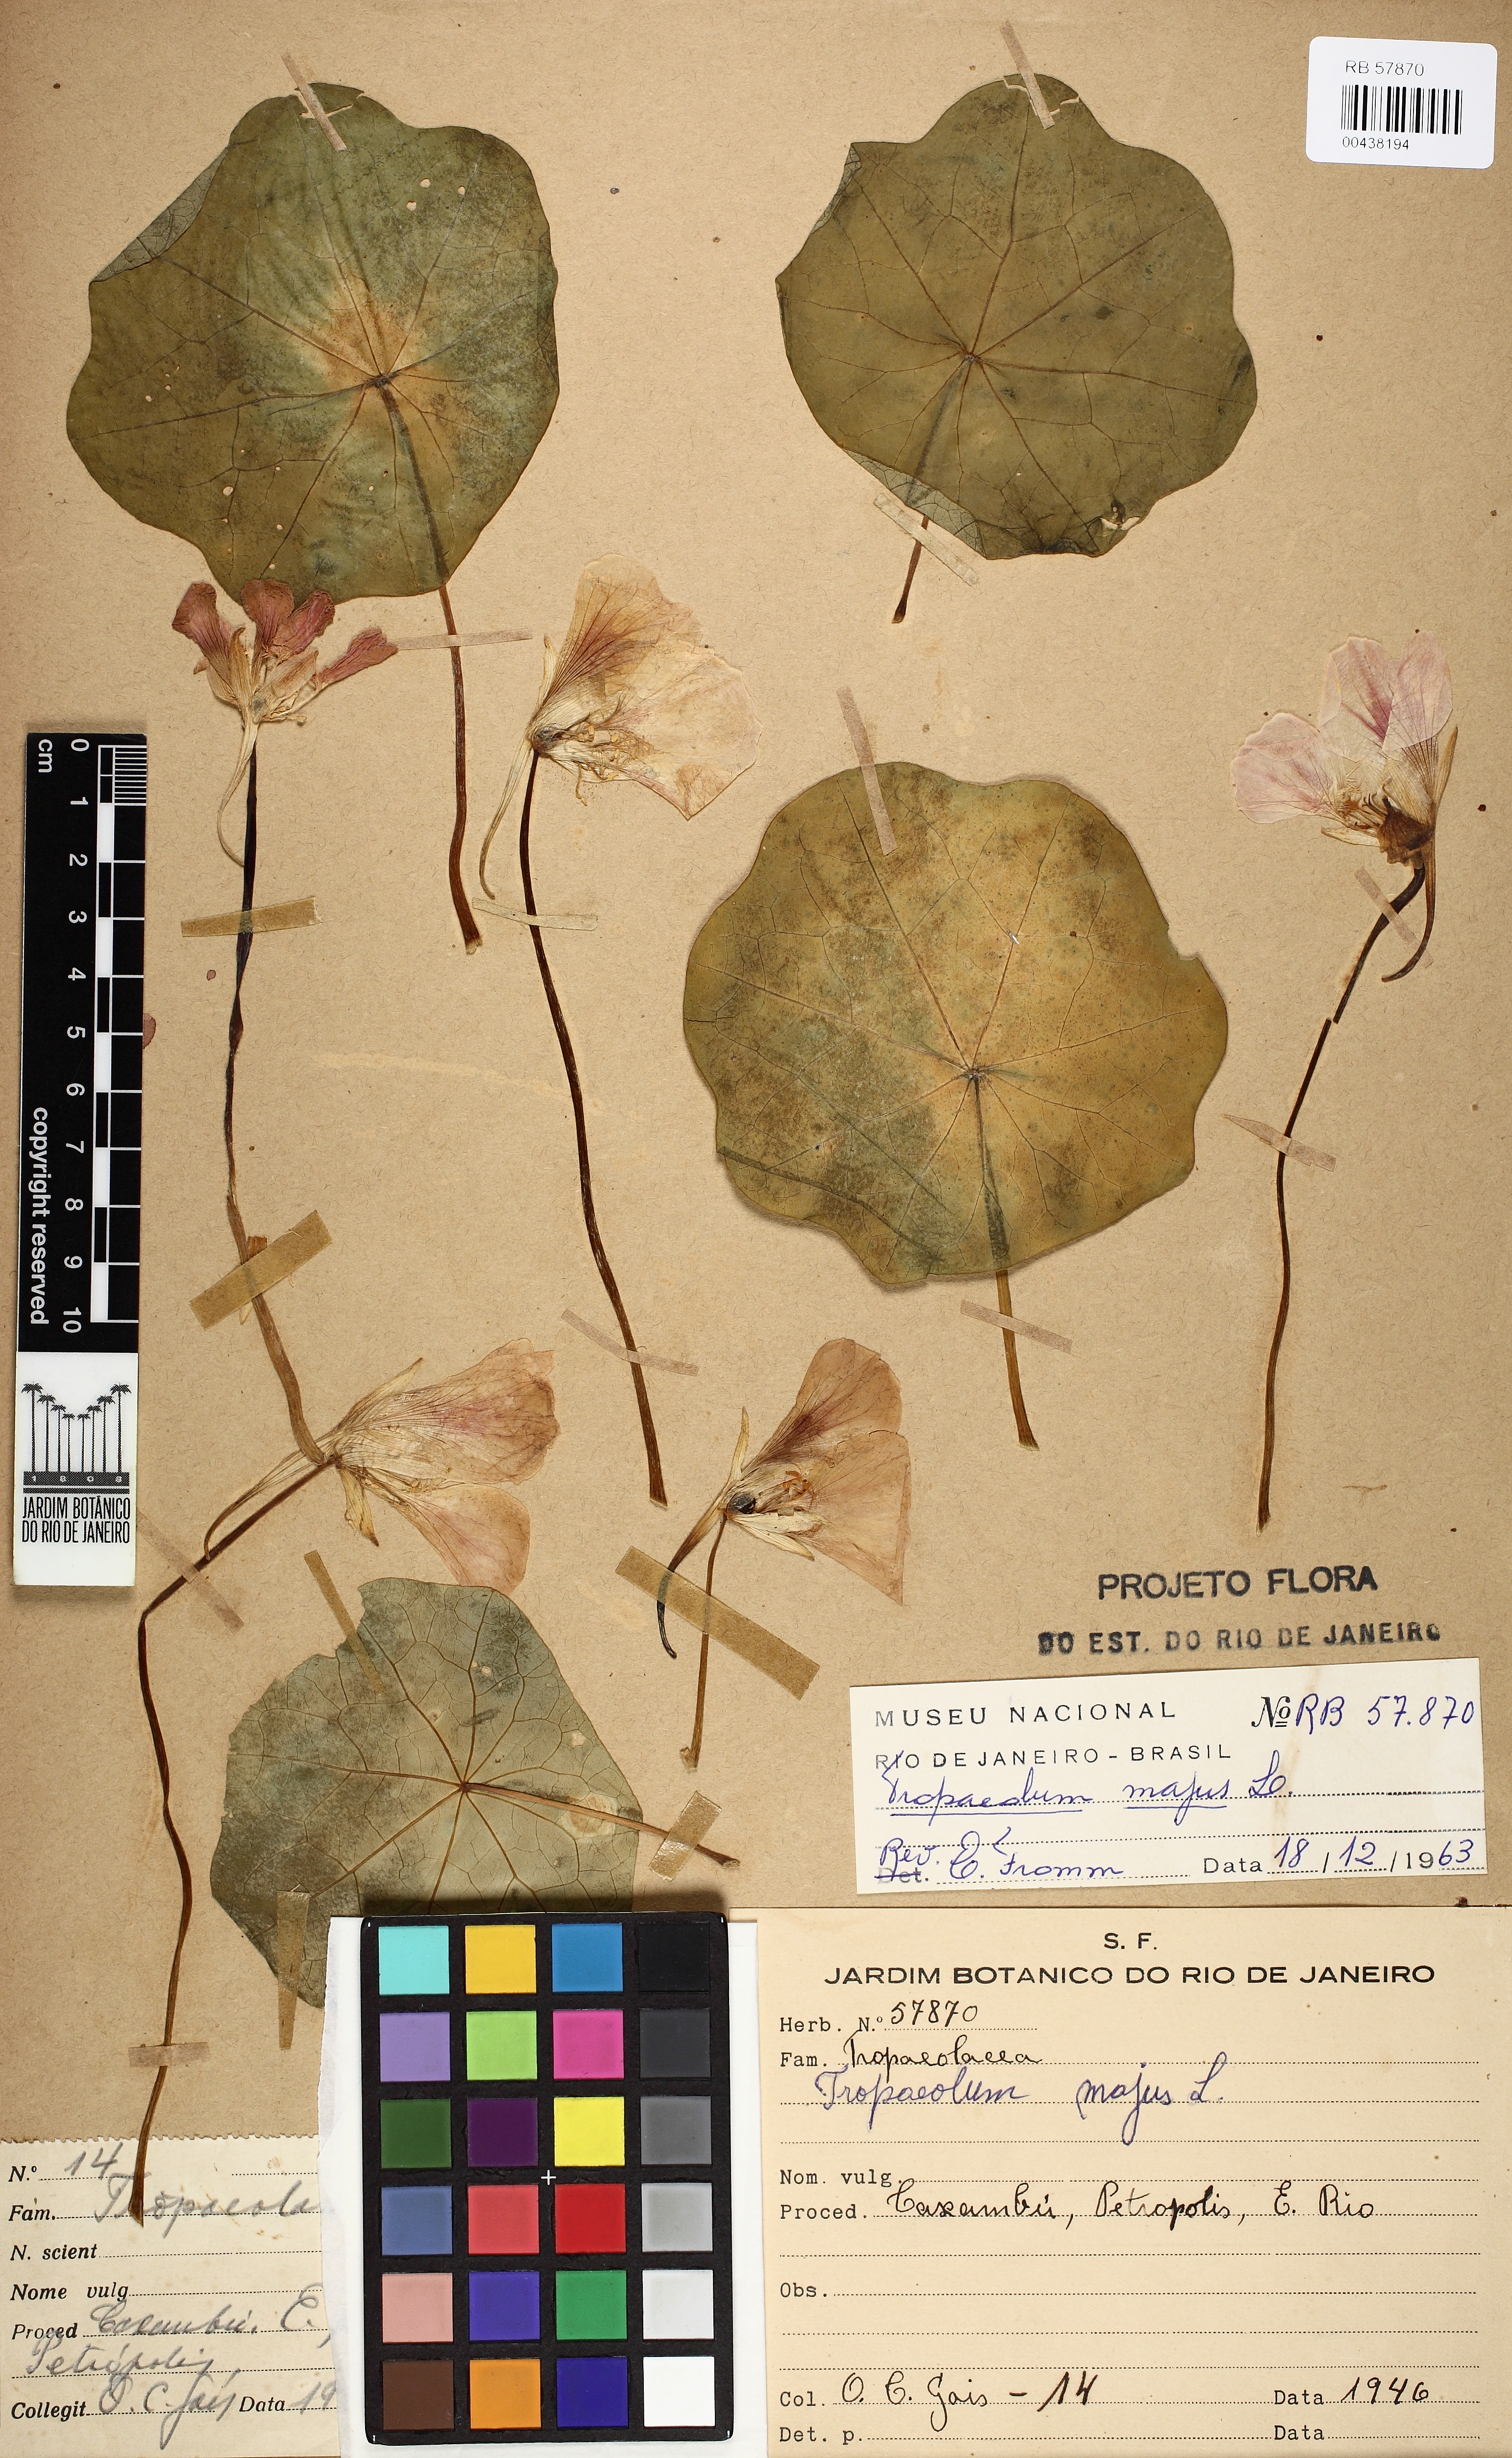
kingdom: Plantae
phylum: Tracheophyta
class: Magnoliopsida
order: Brassicales
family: Tropaeolaceae
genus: Tropaeolum
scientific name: Tropaeolum majus
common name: Nasturtium
